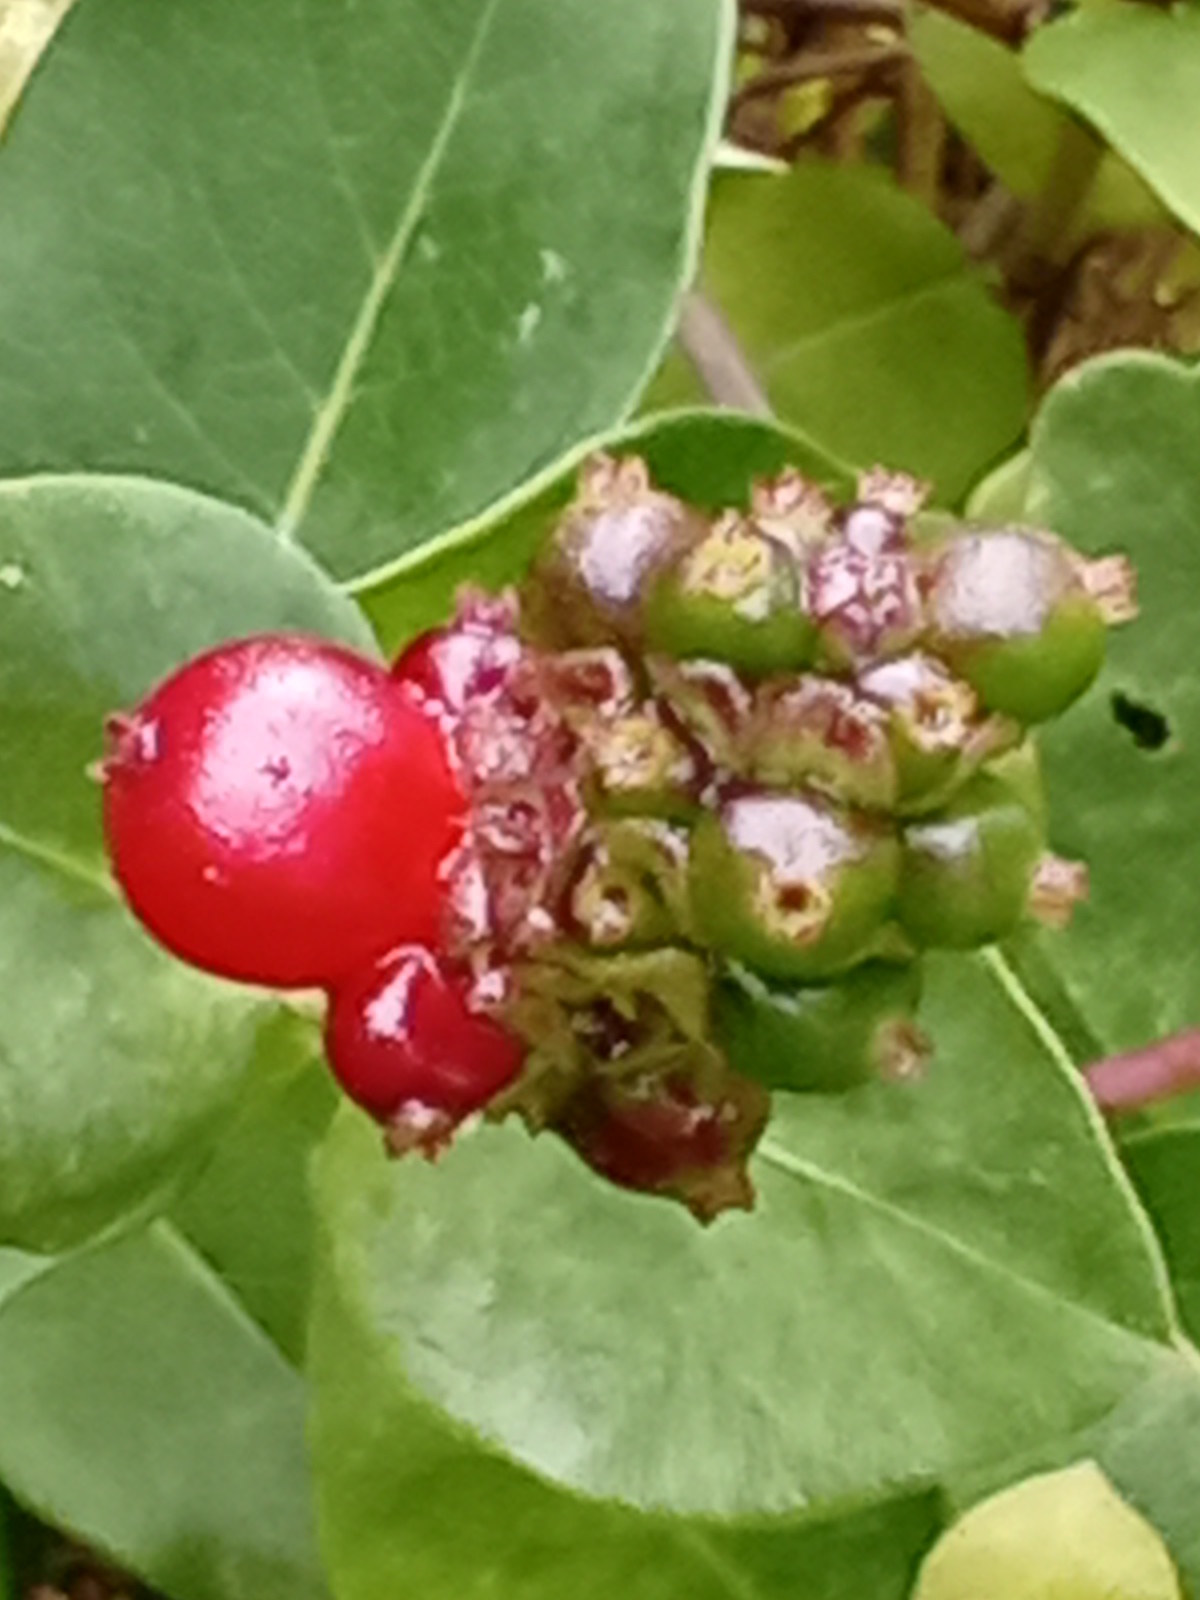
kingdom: Plantae
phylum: Tracheophyta
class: Magnoliopsida
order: Dipsacales
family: Caprifoliaceae
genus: Lonicera
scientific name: Lonicera periclymenum
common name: Almindelig gedeblad
